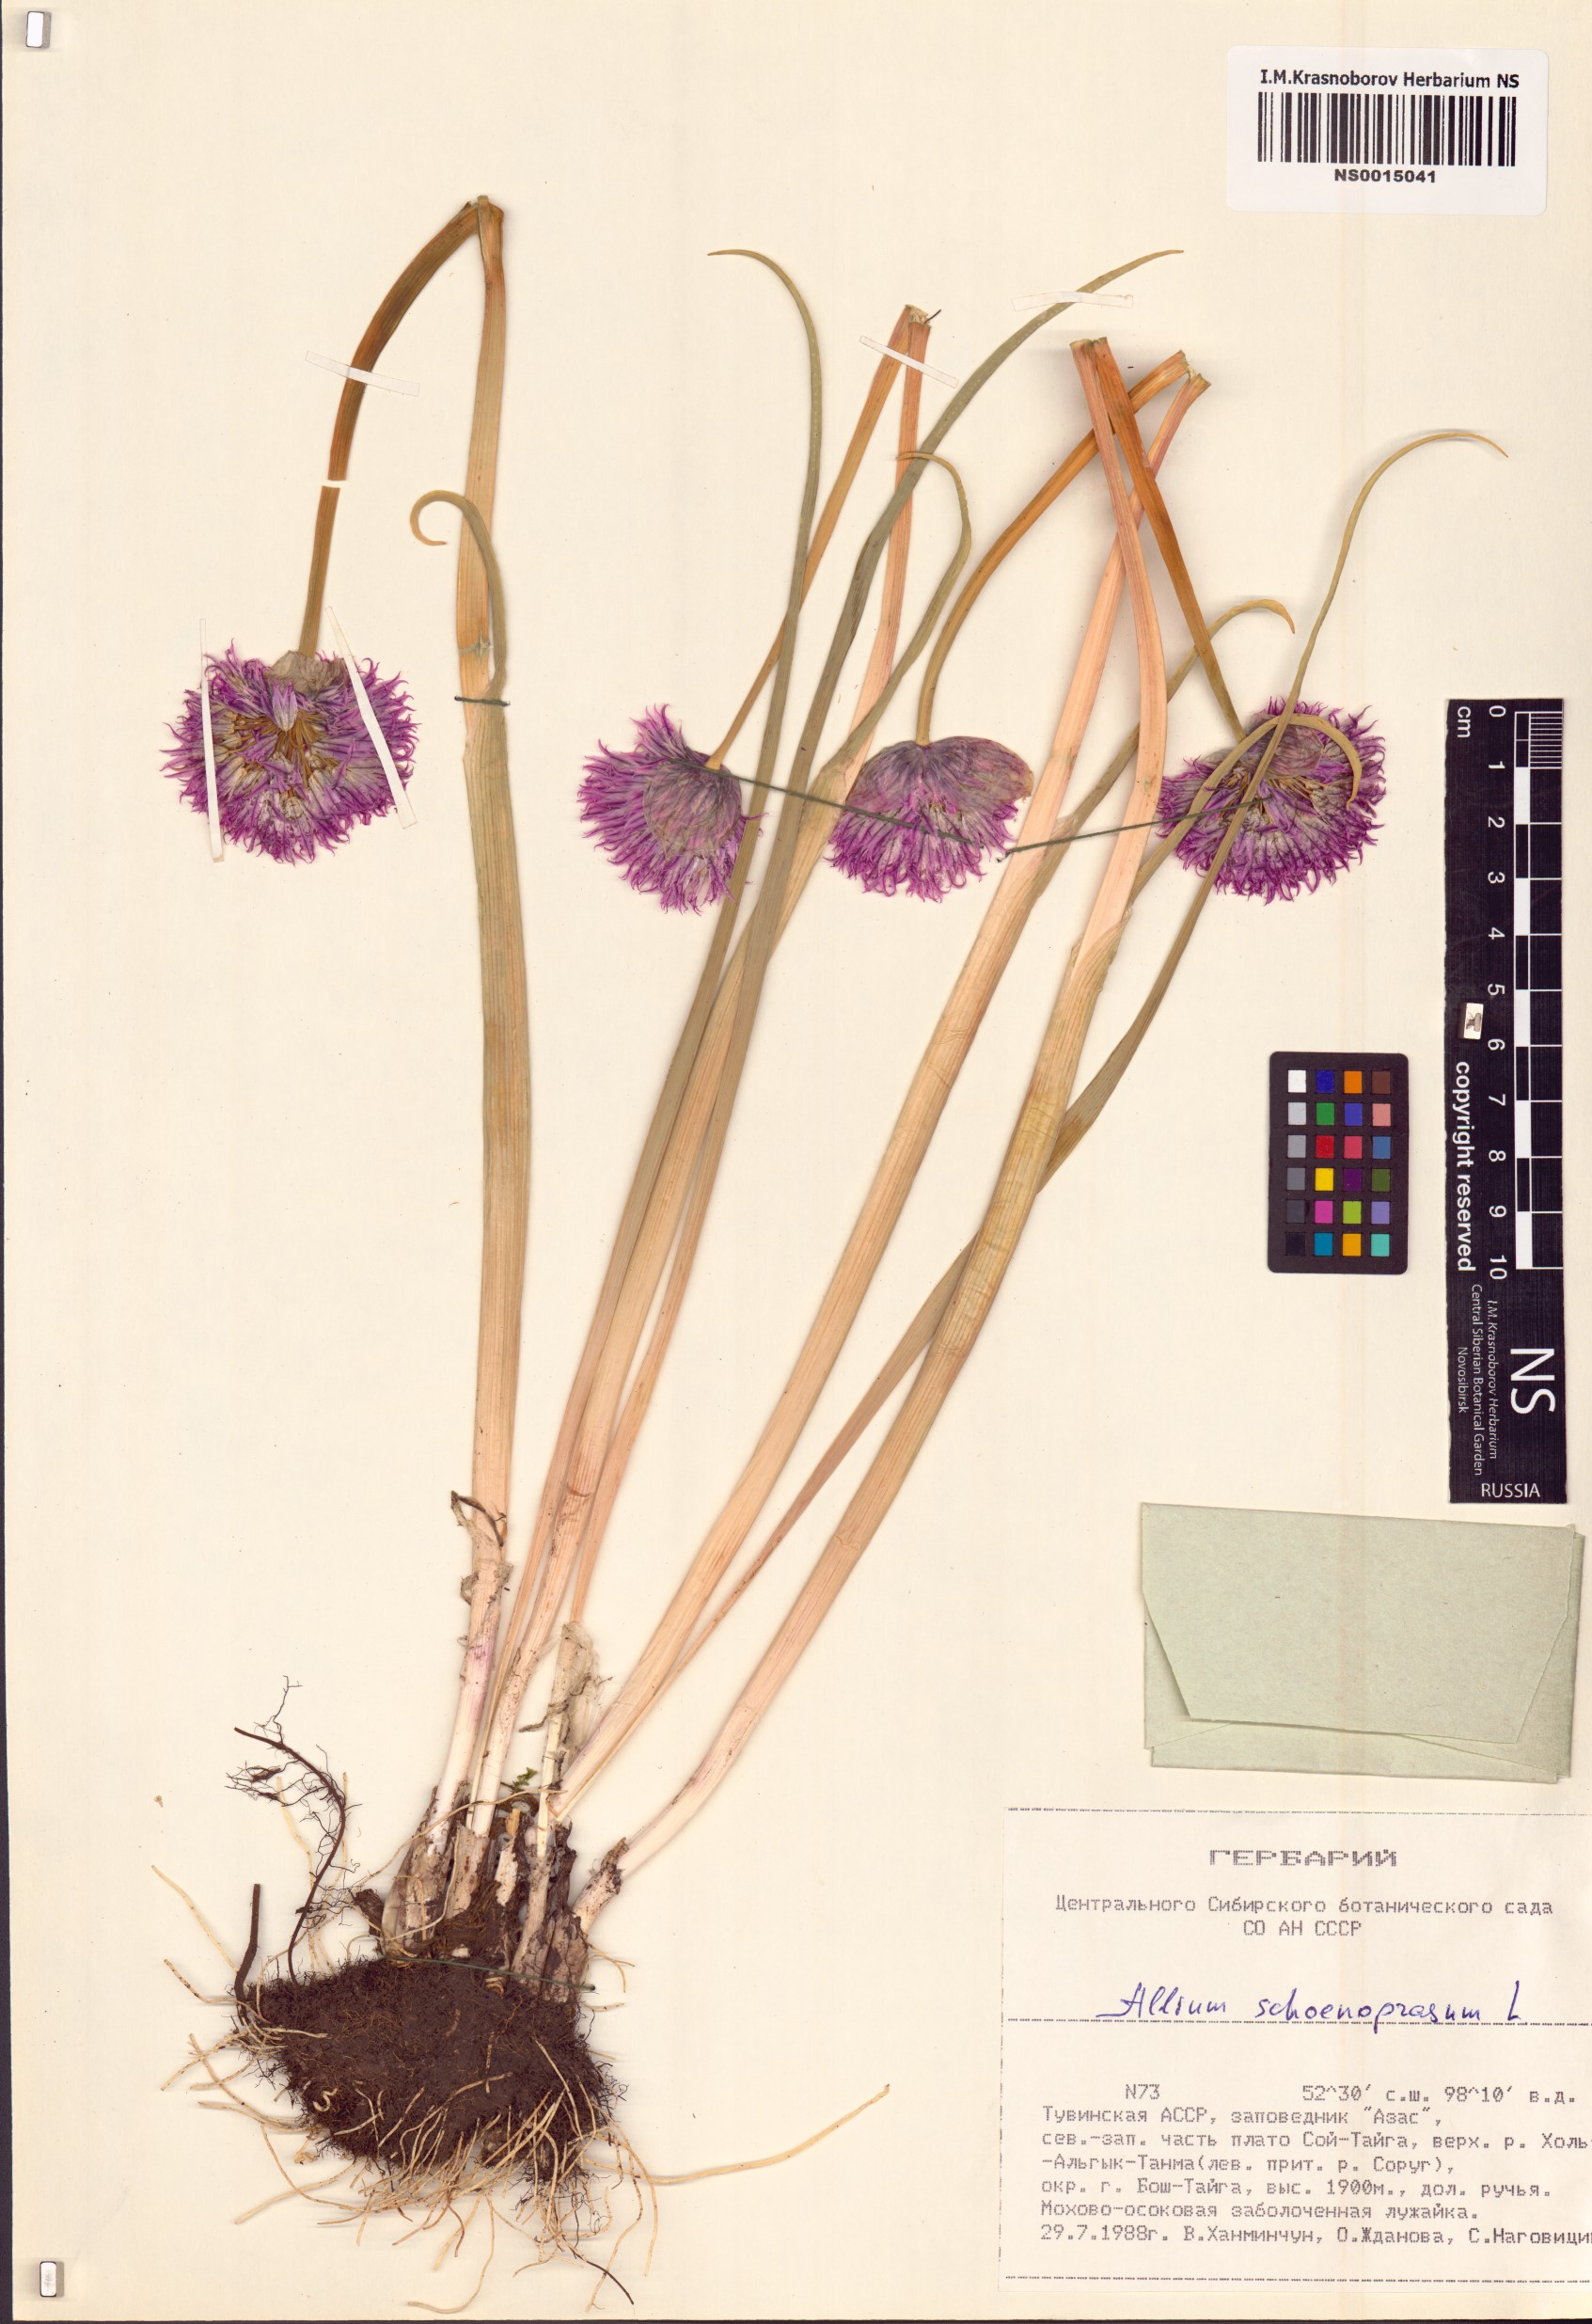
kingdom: Plantae
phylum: Tracheophyta
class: Liliopsida
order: Asparagales
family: Amaryllidaceae
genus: Allium
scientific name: Allium schoenoprasum
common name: Chives
